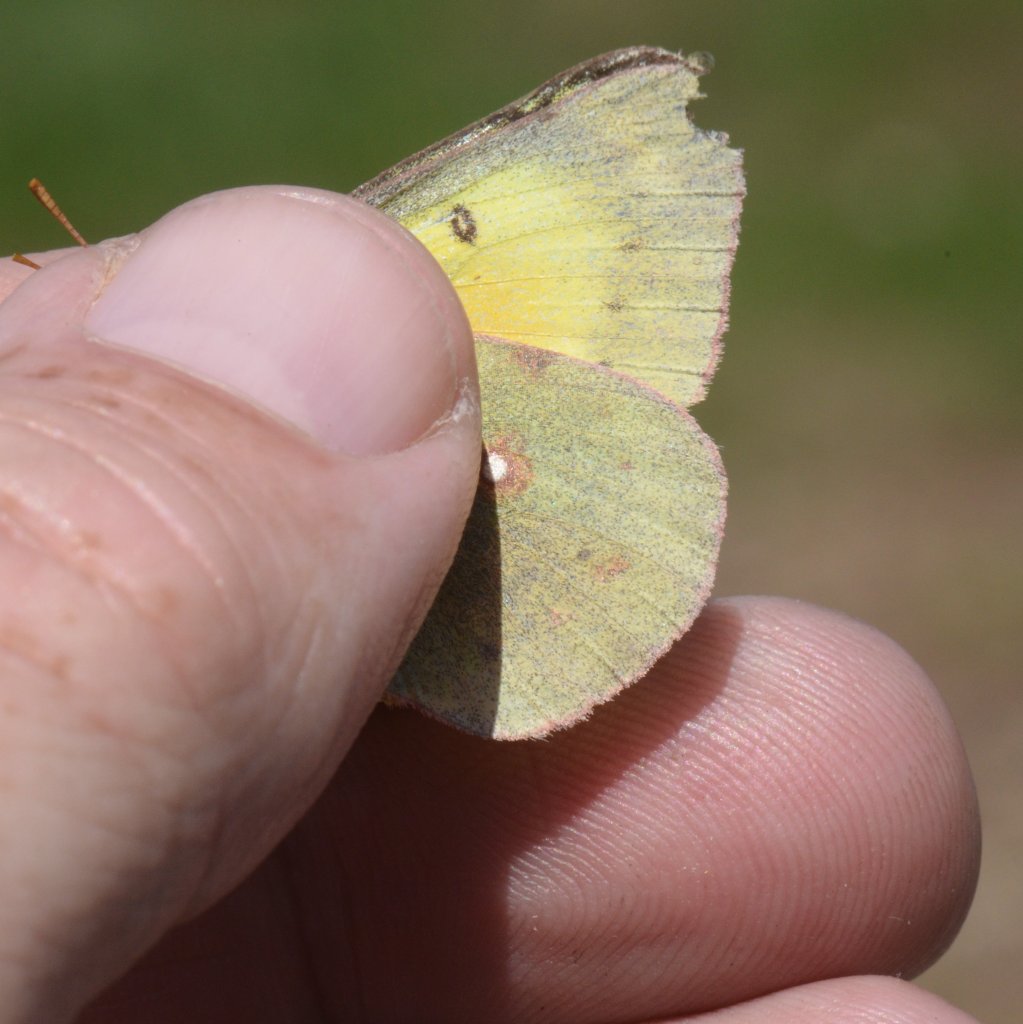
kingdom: Animalia
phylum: Arthropoda
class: Insecta
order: Lepidoptera
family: Pieridae
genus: Colias
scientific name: Colias philodice
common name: Clouded Sulphur
